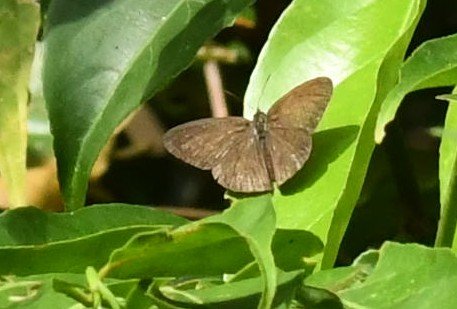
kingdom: Animalia
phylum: Arthropoda
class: Insecta
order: Lepidoptera
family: Nymphalidae
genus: Hermeuptychia
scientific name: Hermeuptychia
